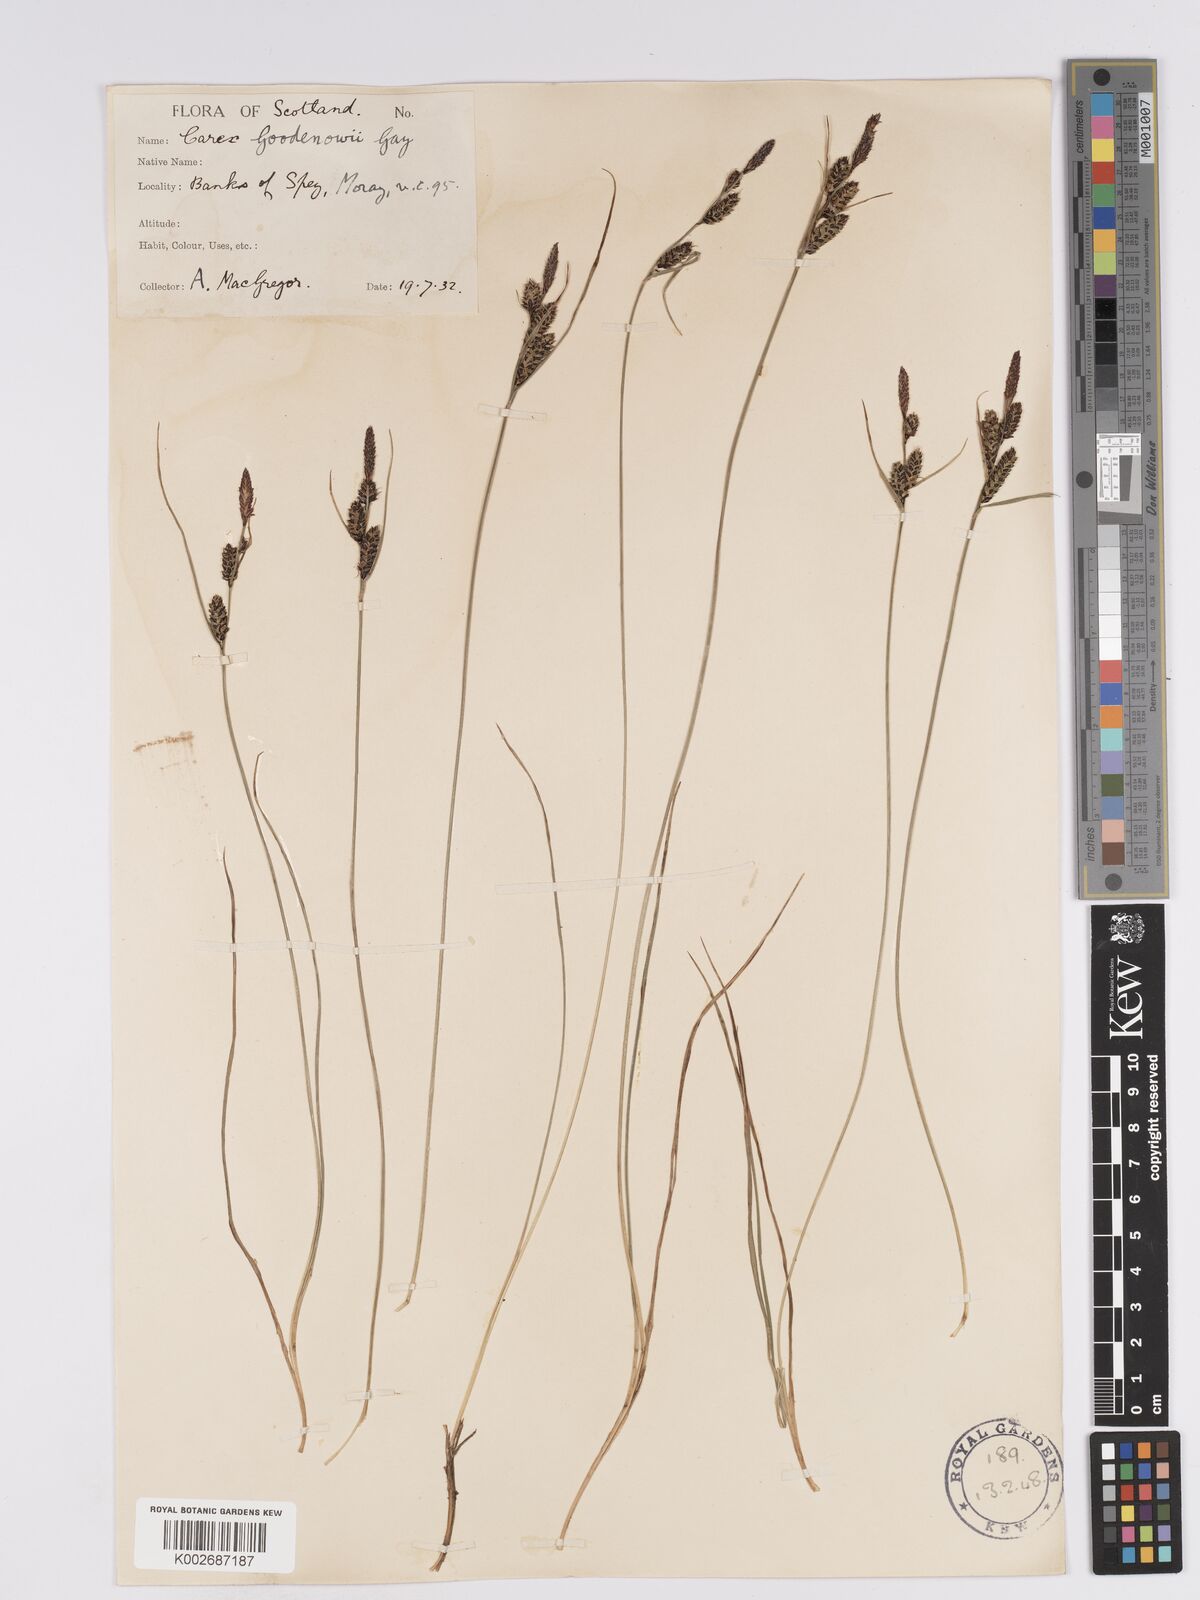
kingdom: Plantae
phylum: Tracheophyta
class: Liliopsida
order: Poales
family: Cyperaceae
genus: Carex
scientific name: Carex nigra
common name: Common sedge
